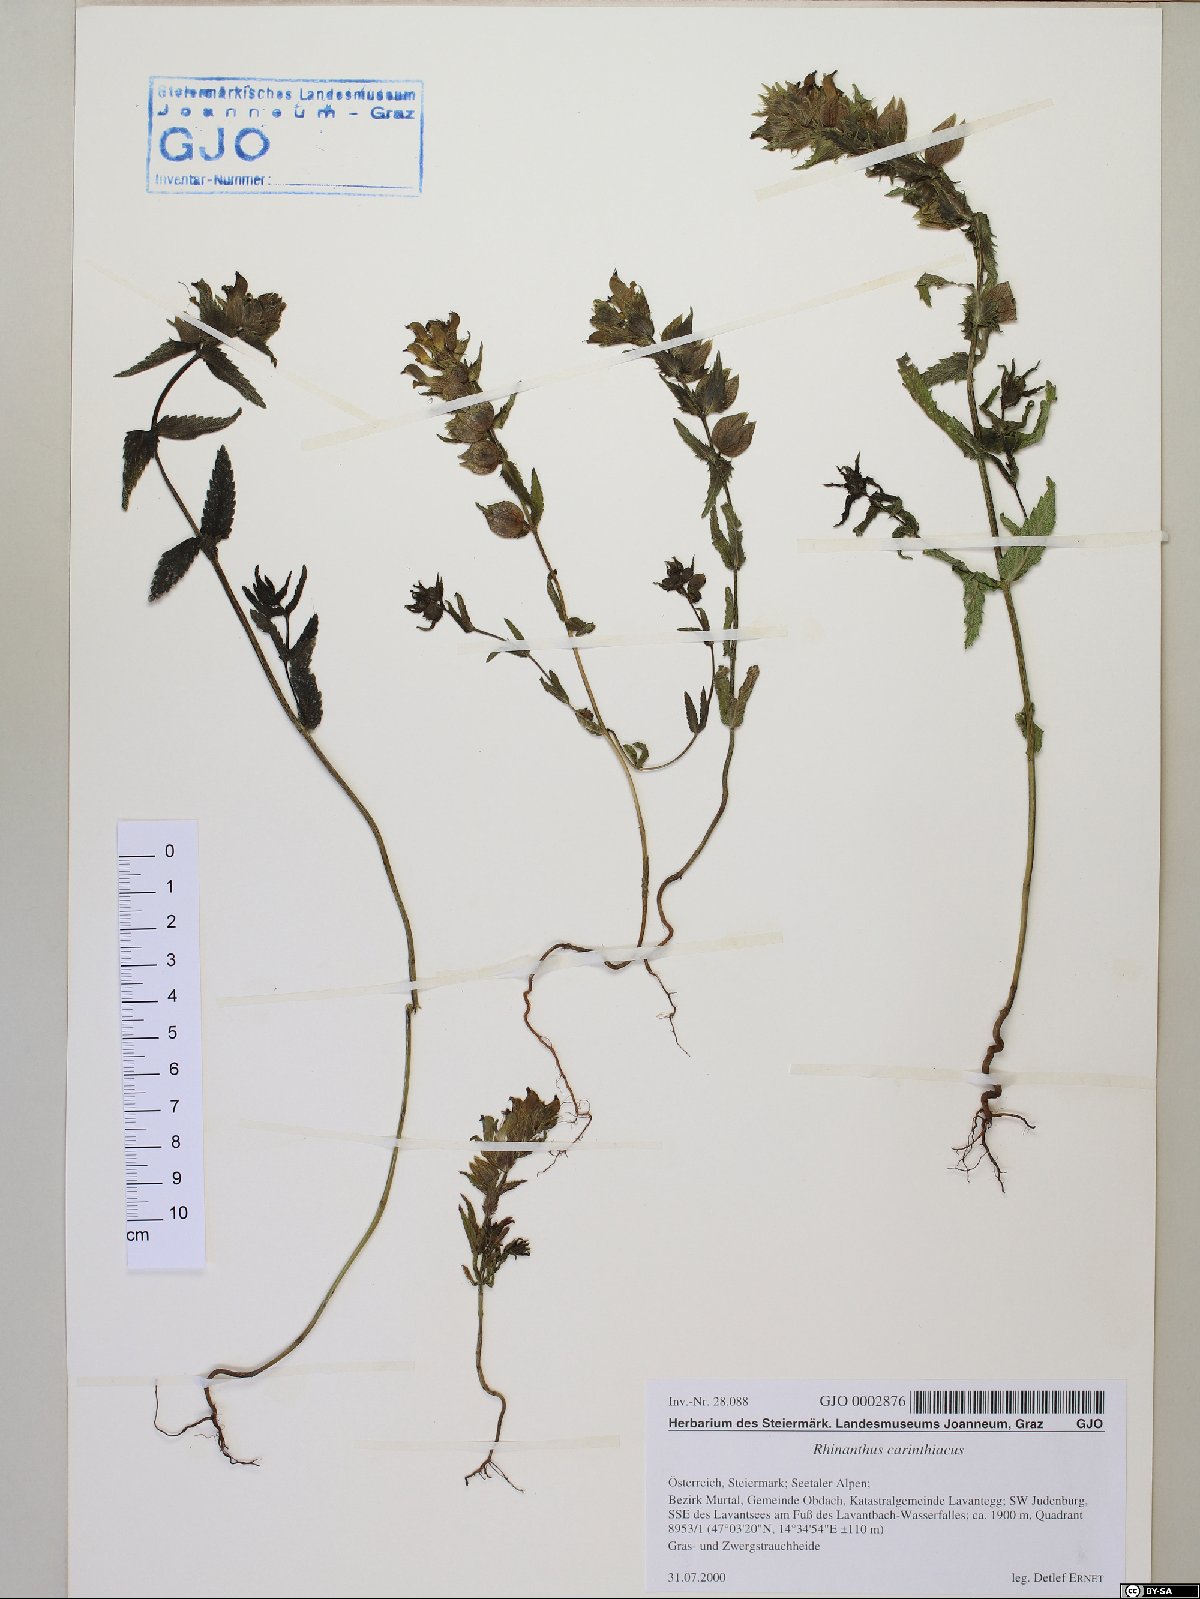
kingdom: Plantae
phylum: Tracheophyta
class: Magnoliopsida
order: Lamiales
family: Orobanchaceae
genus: Rhinanthus
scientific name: Rhinanthus carinthiacus
